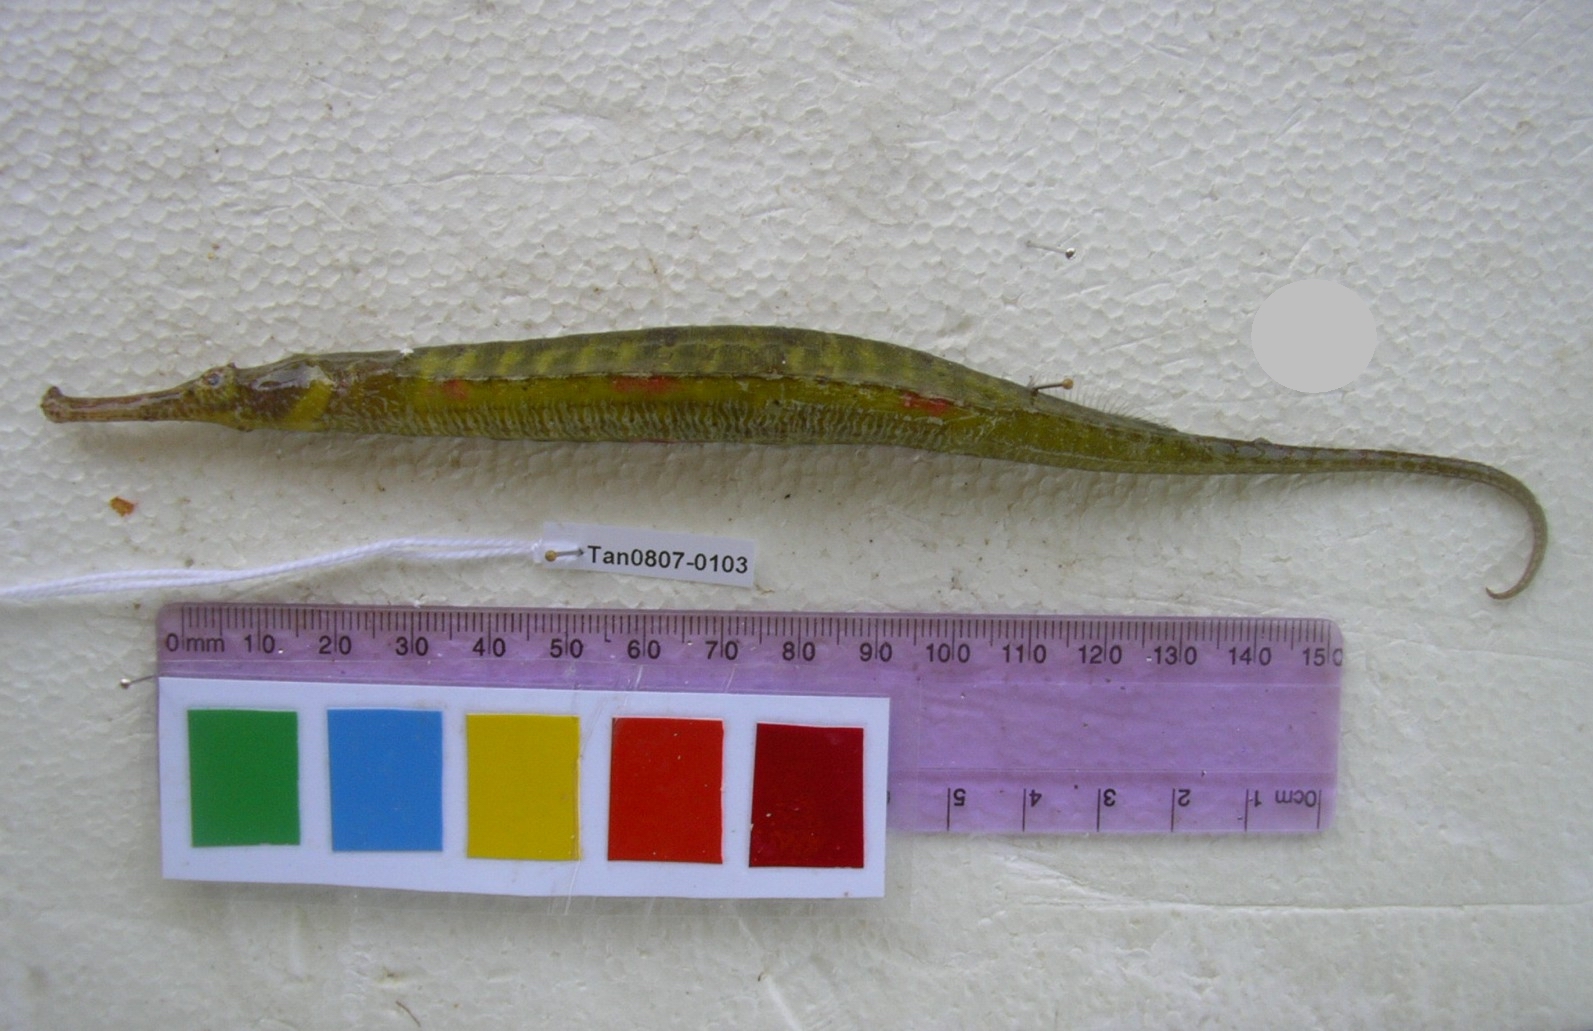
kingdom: Animalia
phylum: Chordata
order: Syngnathiformes
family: Syngnathidae
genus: Syngnathoides
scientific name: Syngnathoides biaculeatus
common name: Alligator pipefish
